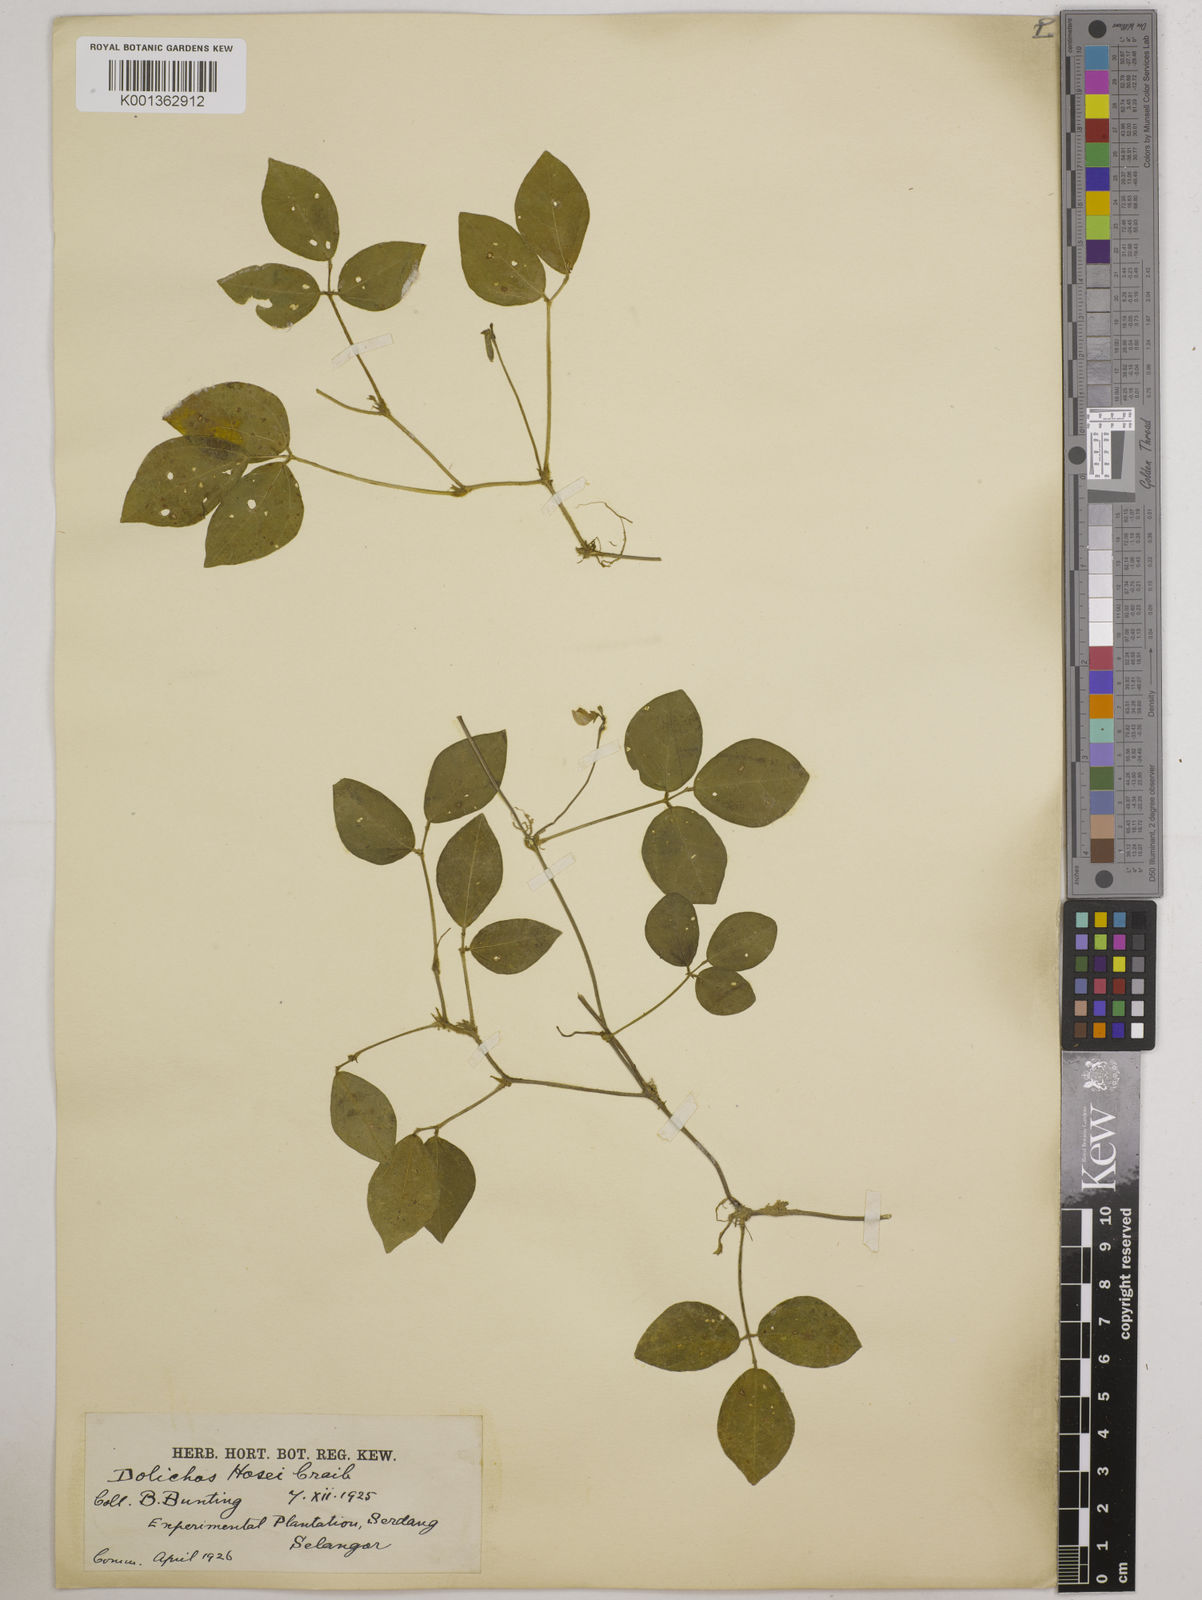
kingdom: Plantae
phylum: Tracheophyta
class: Magnoliopsida
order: Fabales
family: Fabaceae
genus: Vigna
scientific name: Vigna hosei
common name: Sarawak-bean
